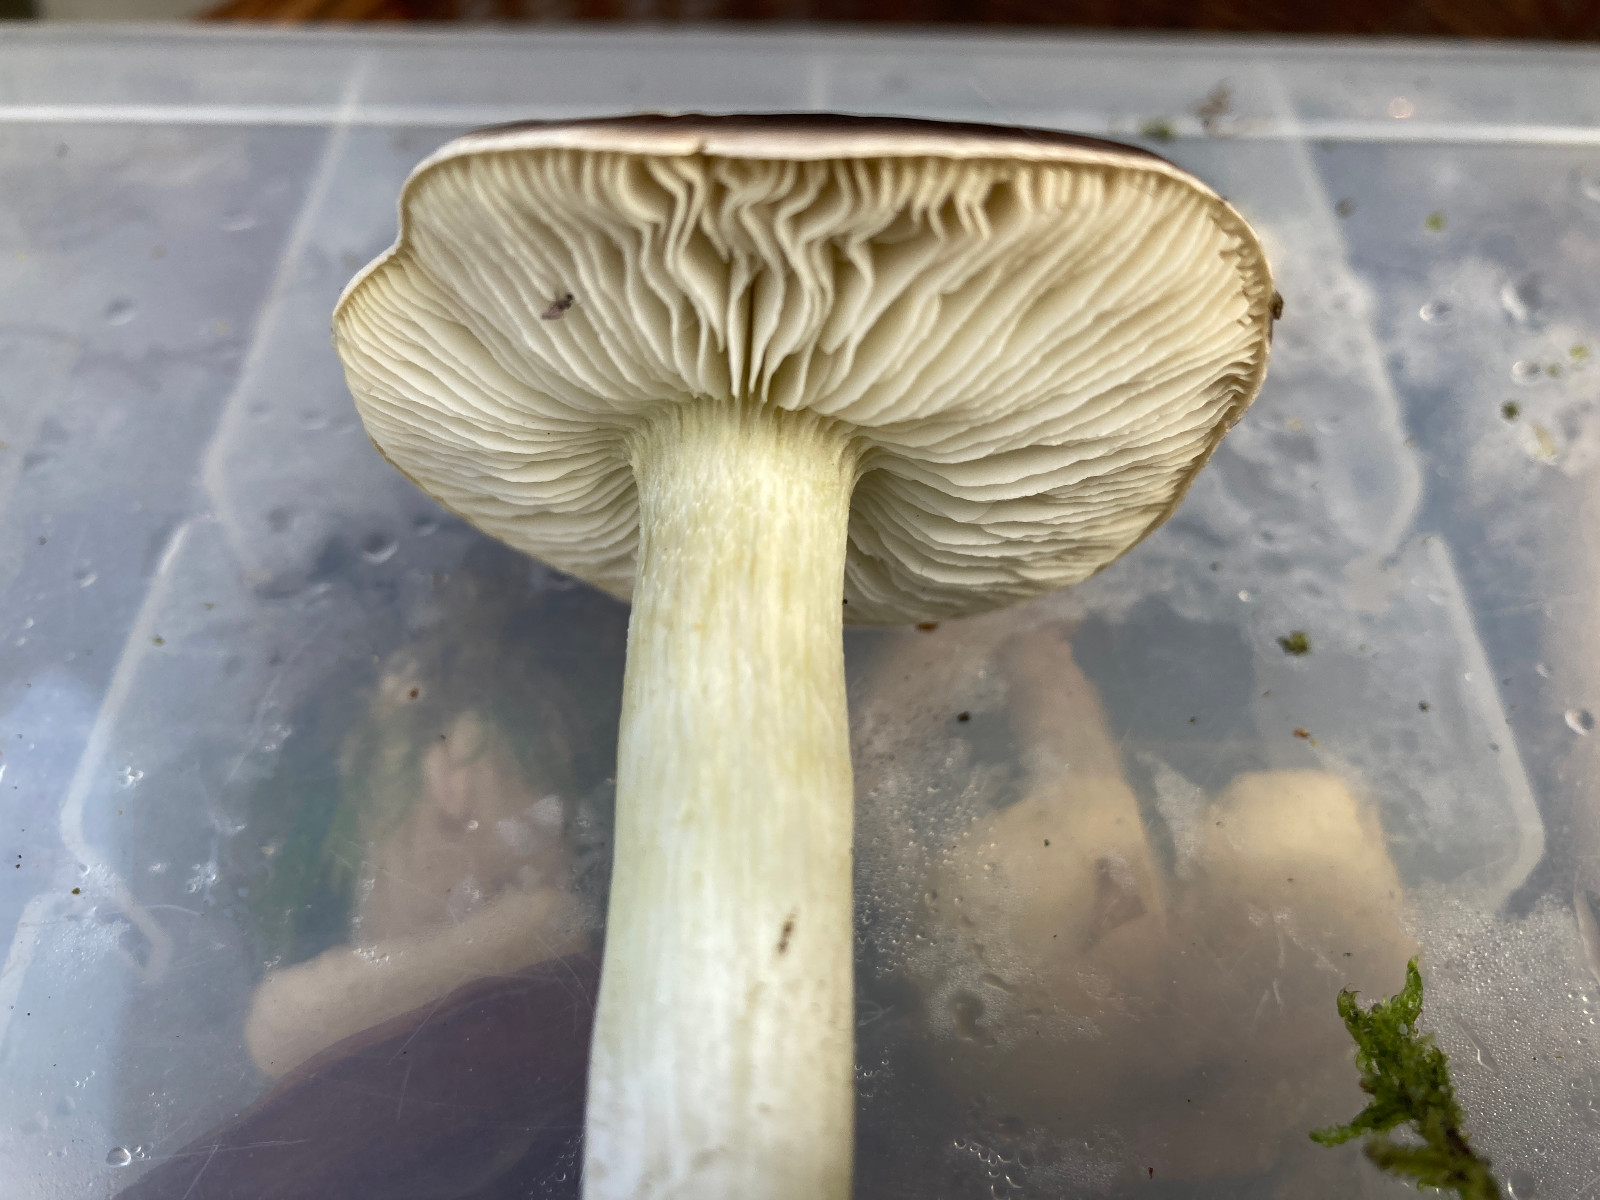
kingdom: Fungi
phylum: Basidiomycota
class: Agaricomycetes
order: Agaricales
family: Tricholomataceae
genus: Tricholoma
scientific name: Tricholoma portentosum
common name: grå ridderhat
